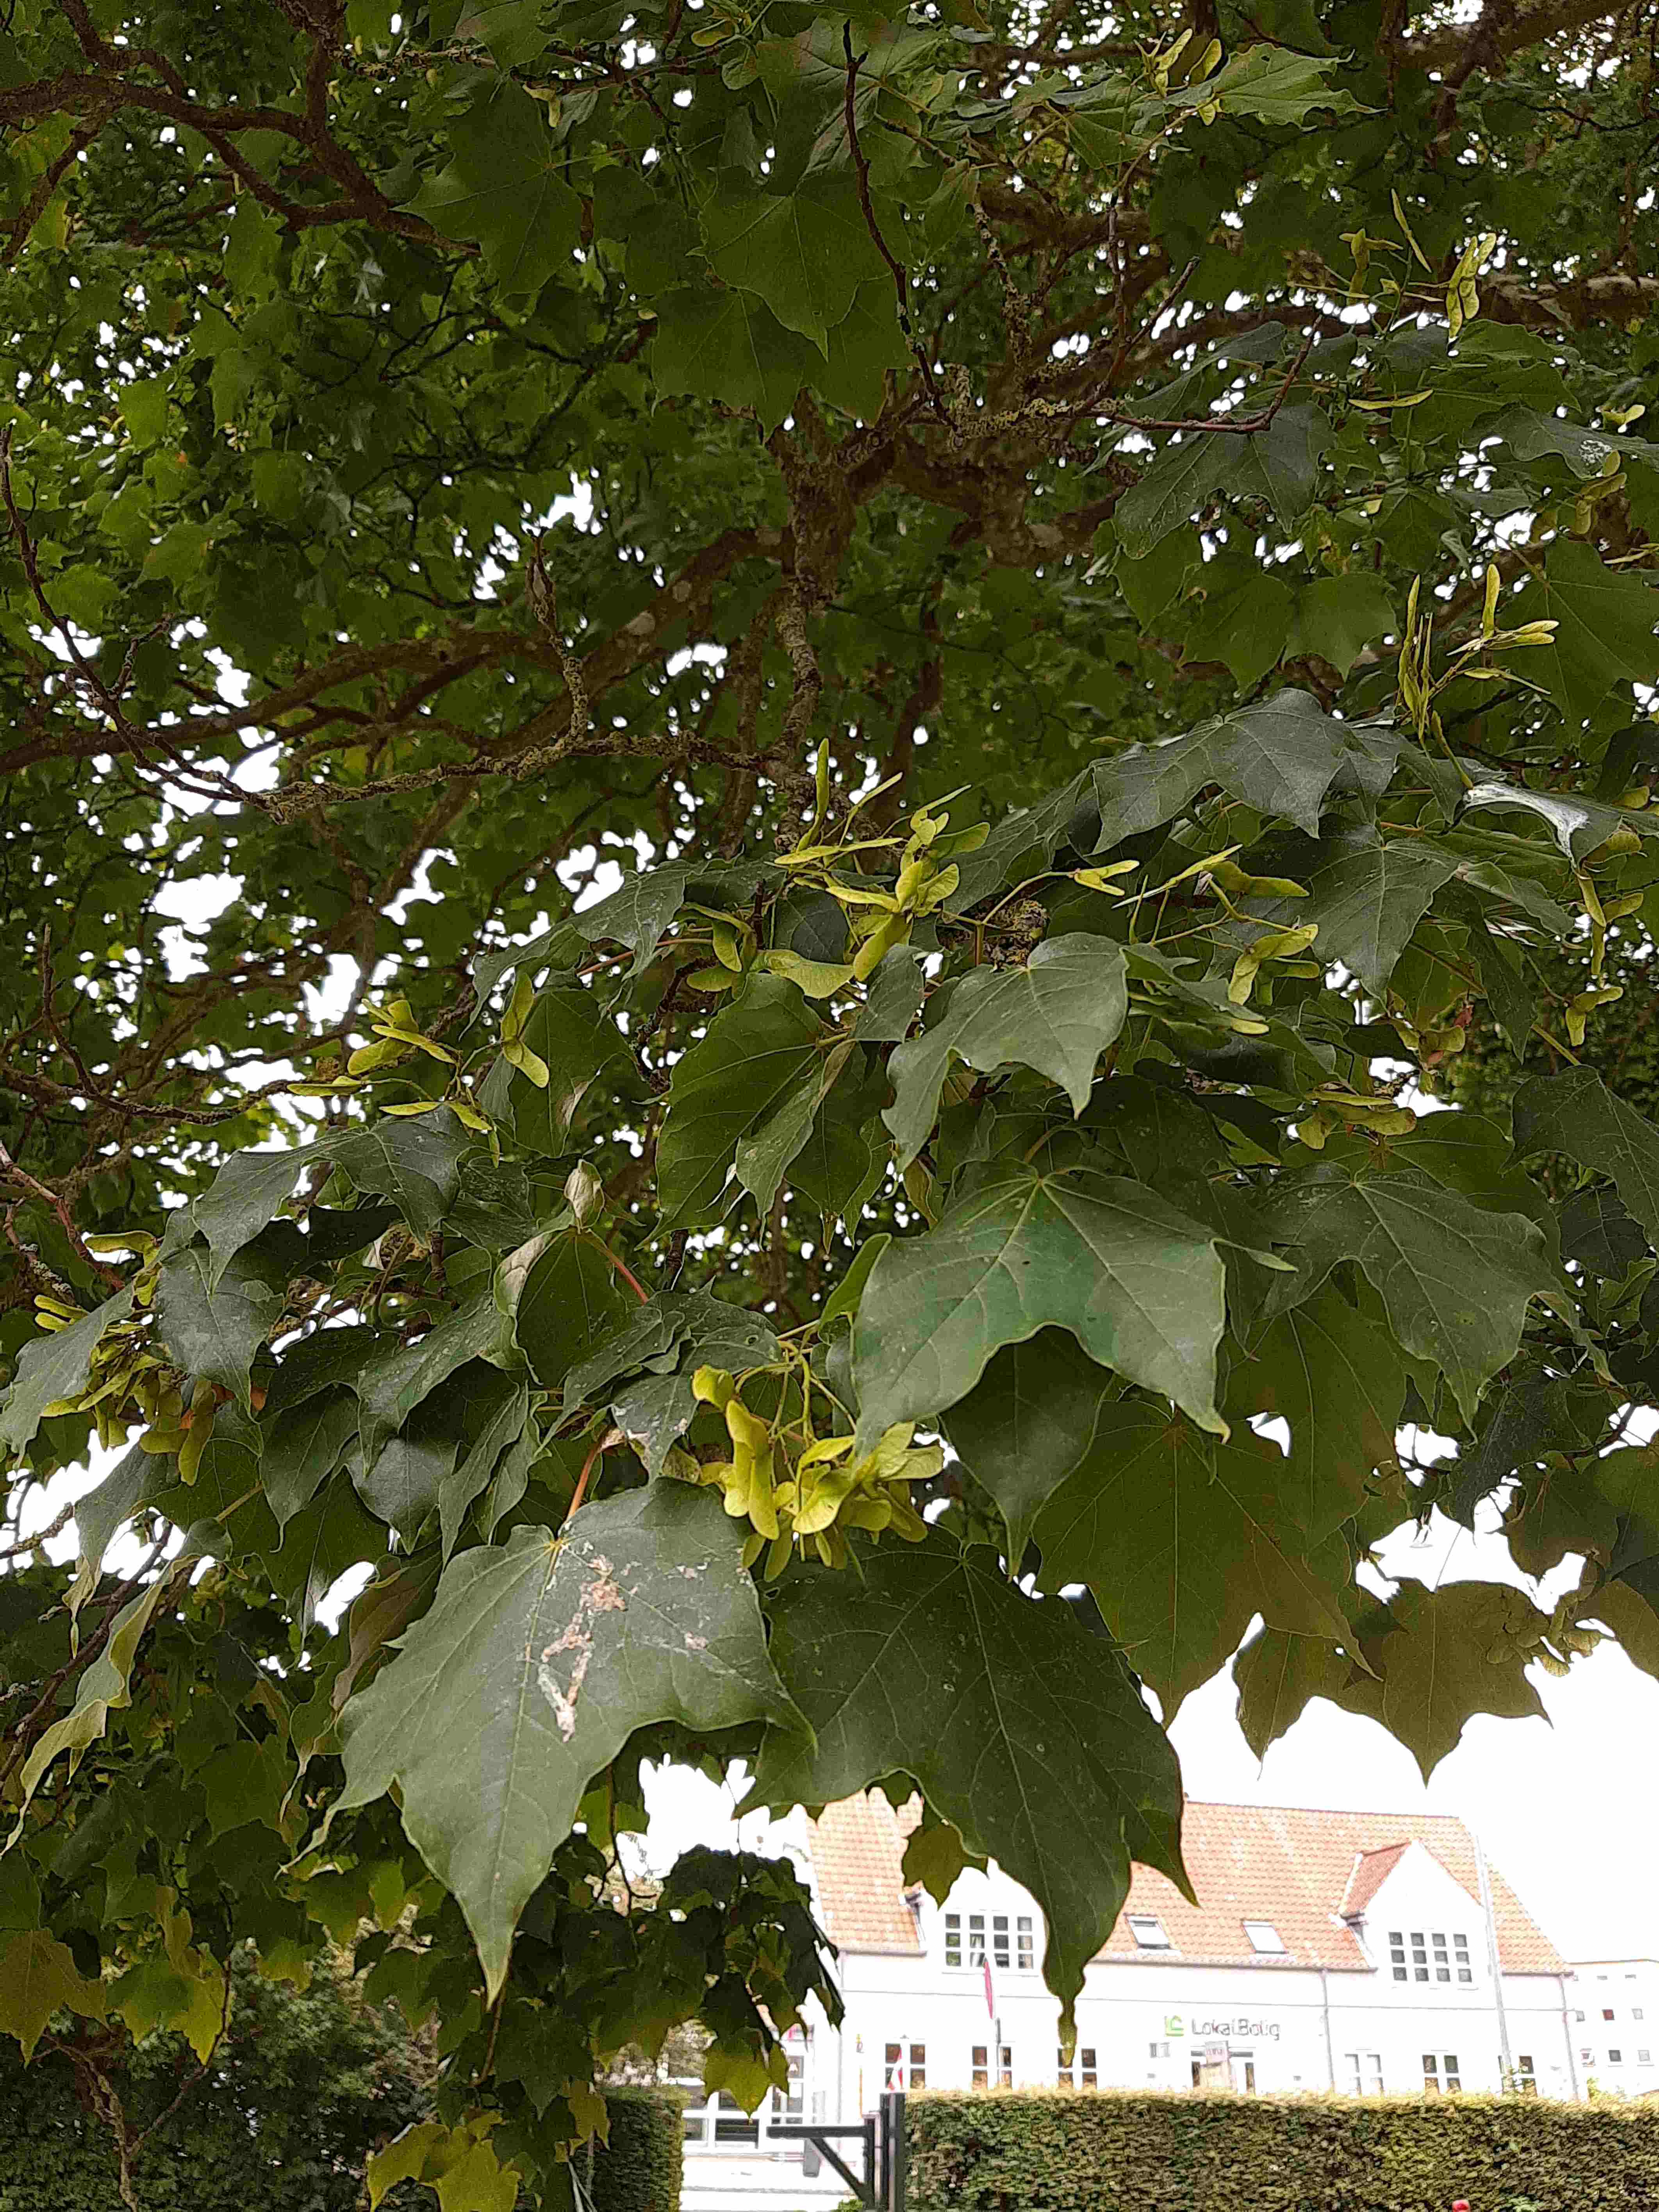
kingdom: Fungi
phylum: Basidiomycota
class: Agaricomycetes
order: Polyporales
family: Polyporaceae
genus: Cerioporus
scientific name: Cerioporus squamosus
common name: skællet stilkporesvamp
